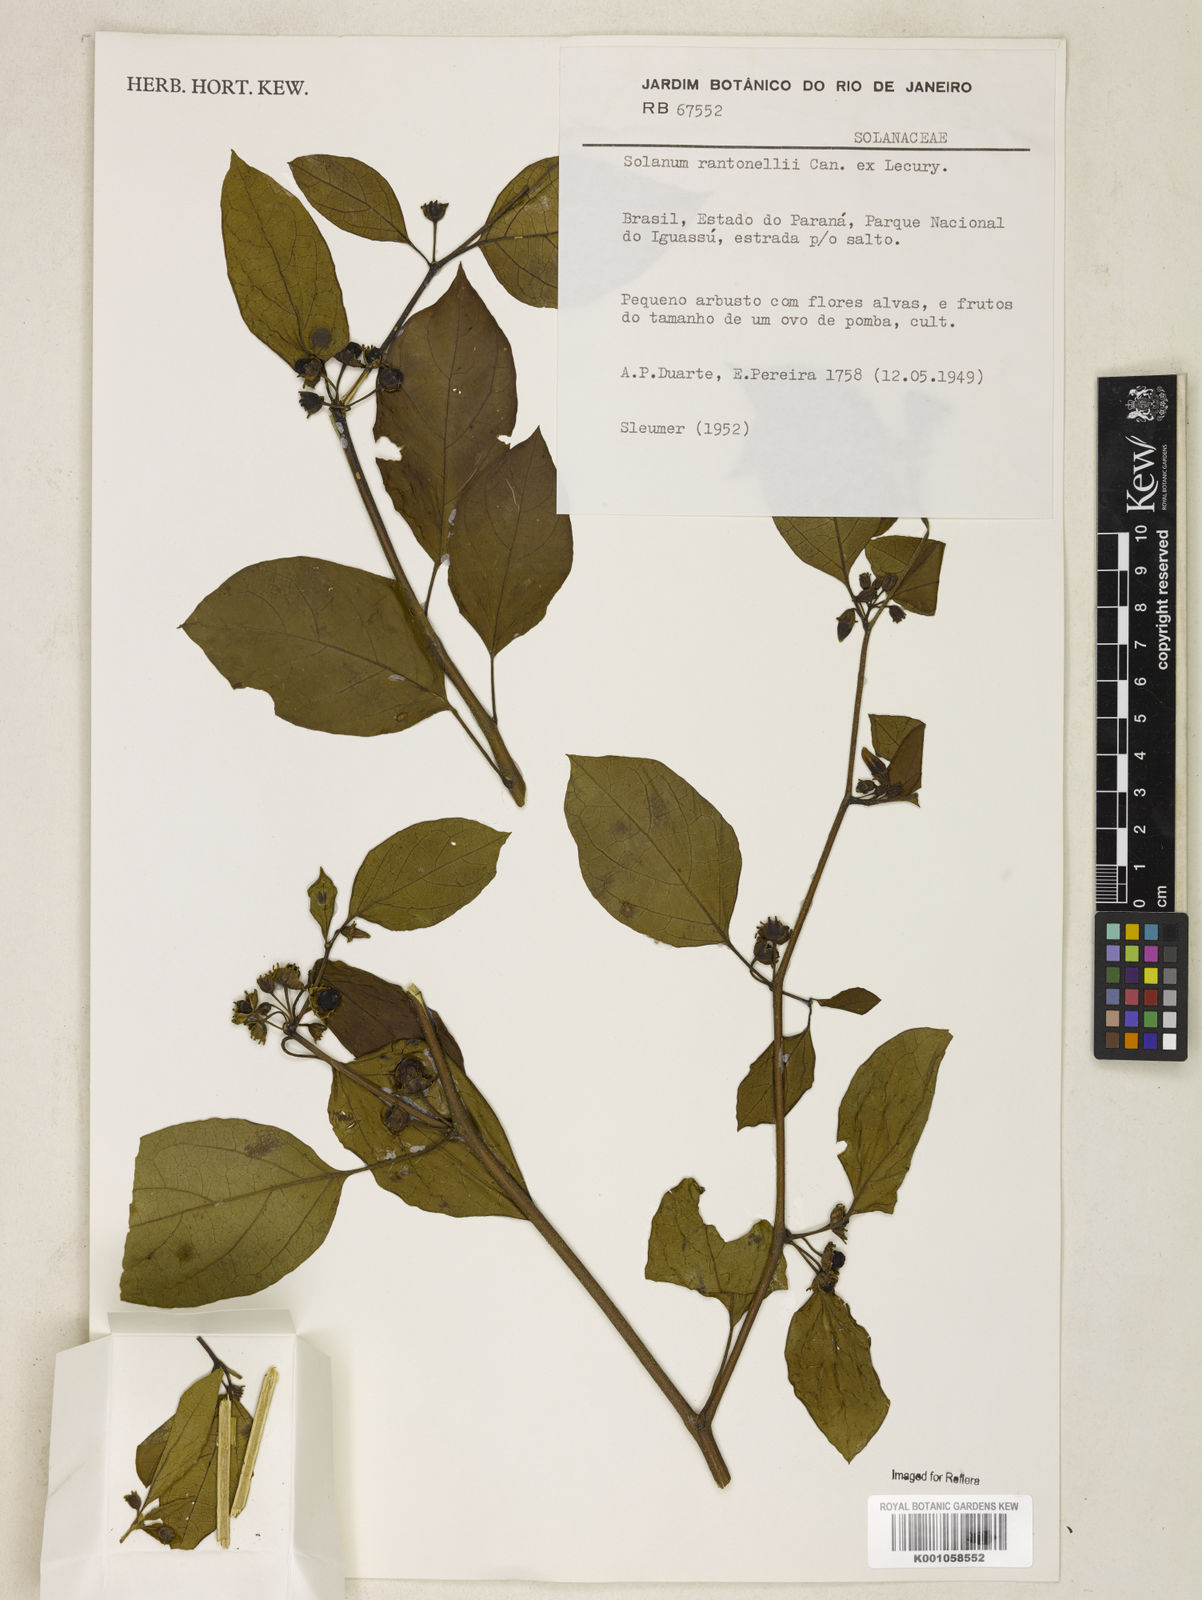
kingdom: Plantae
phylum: Tracheophyta
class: Magnoliopsida
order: Solanales
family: Solanaceae
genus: Solanum
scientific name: Solanum
